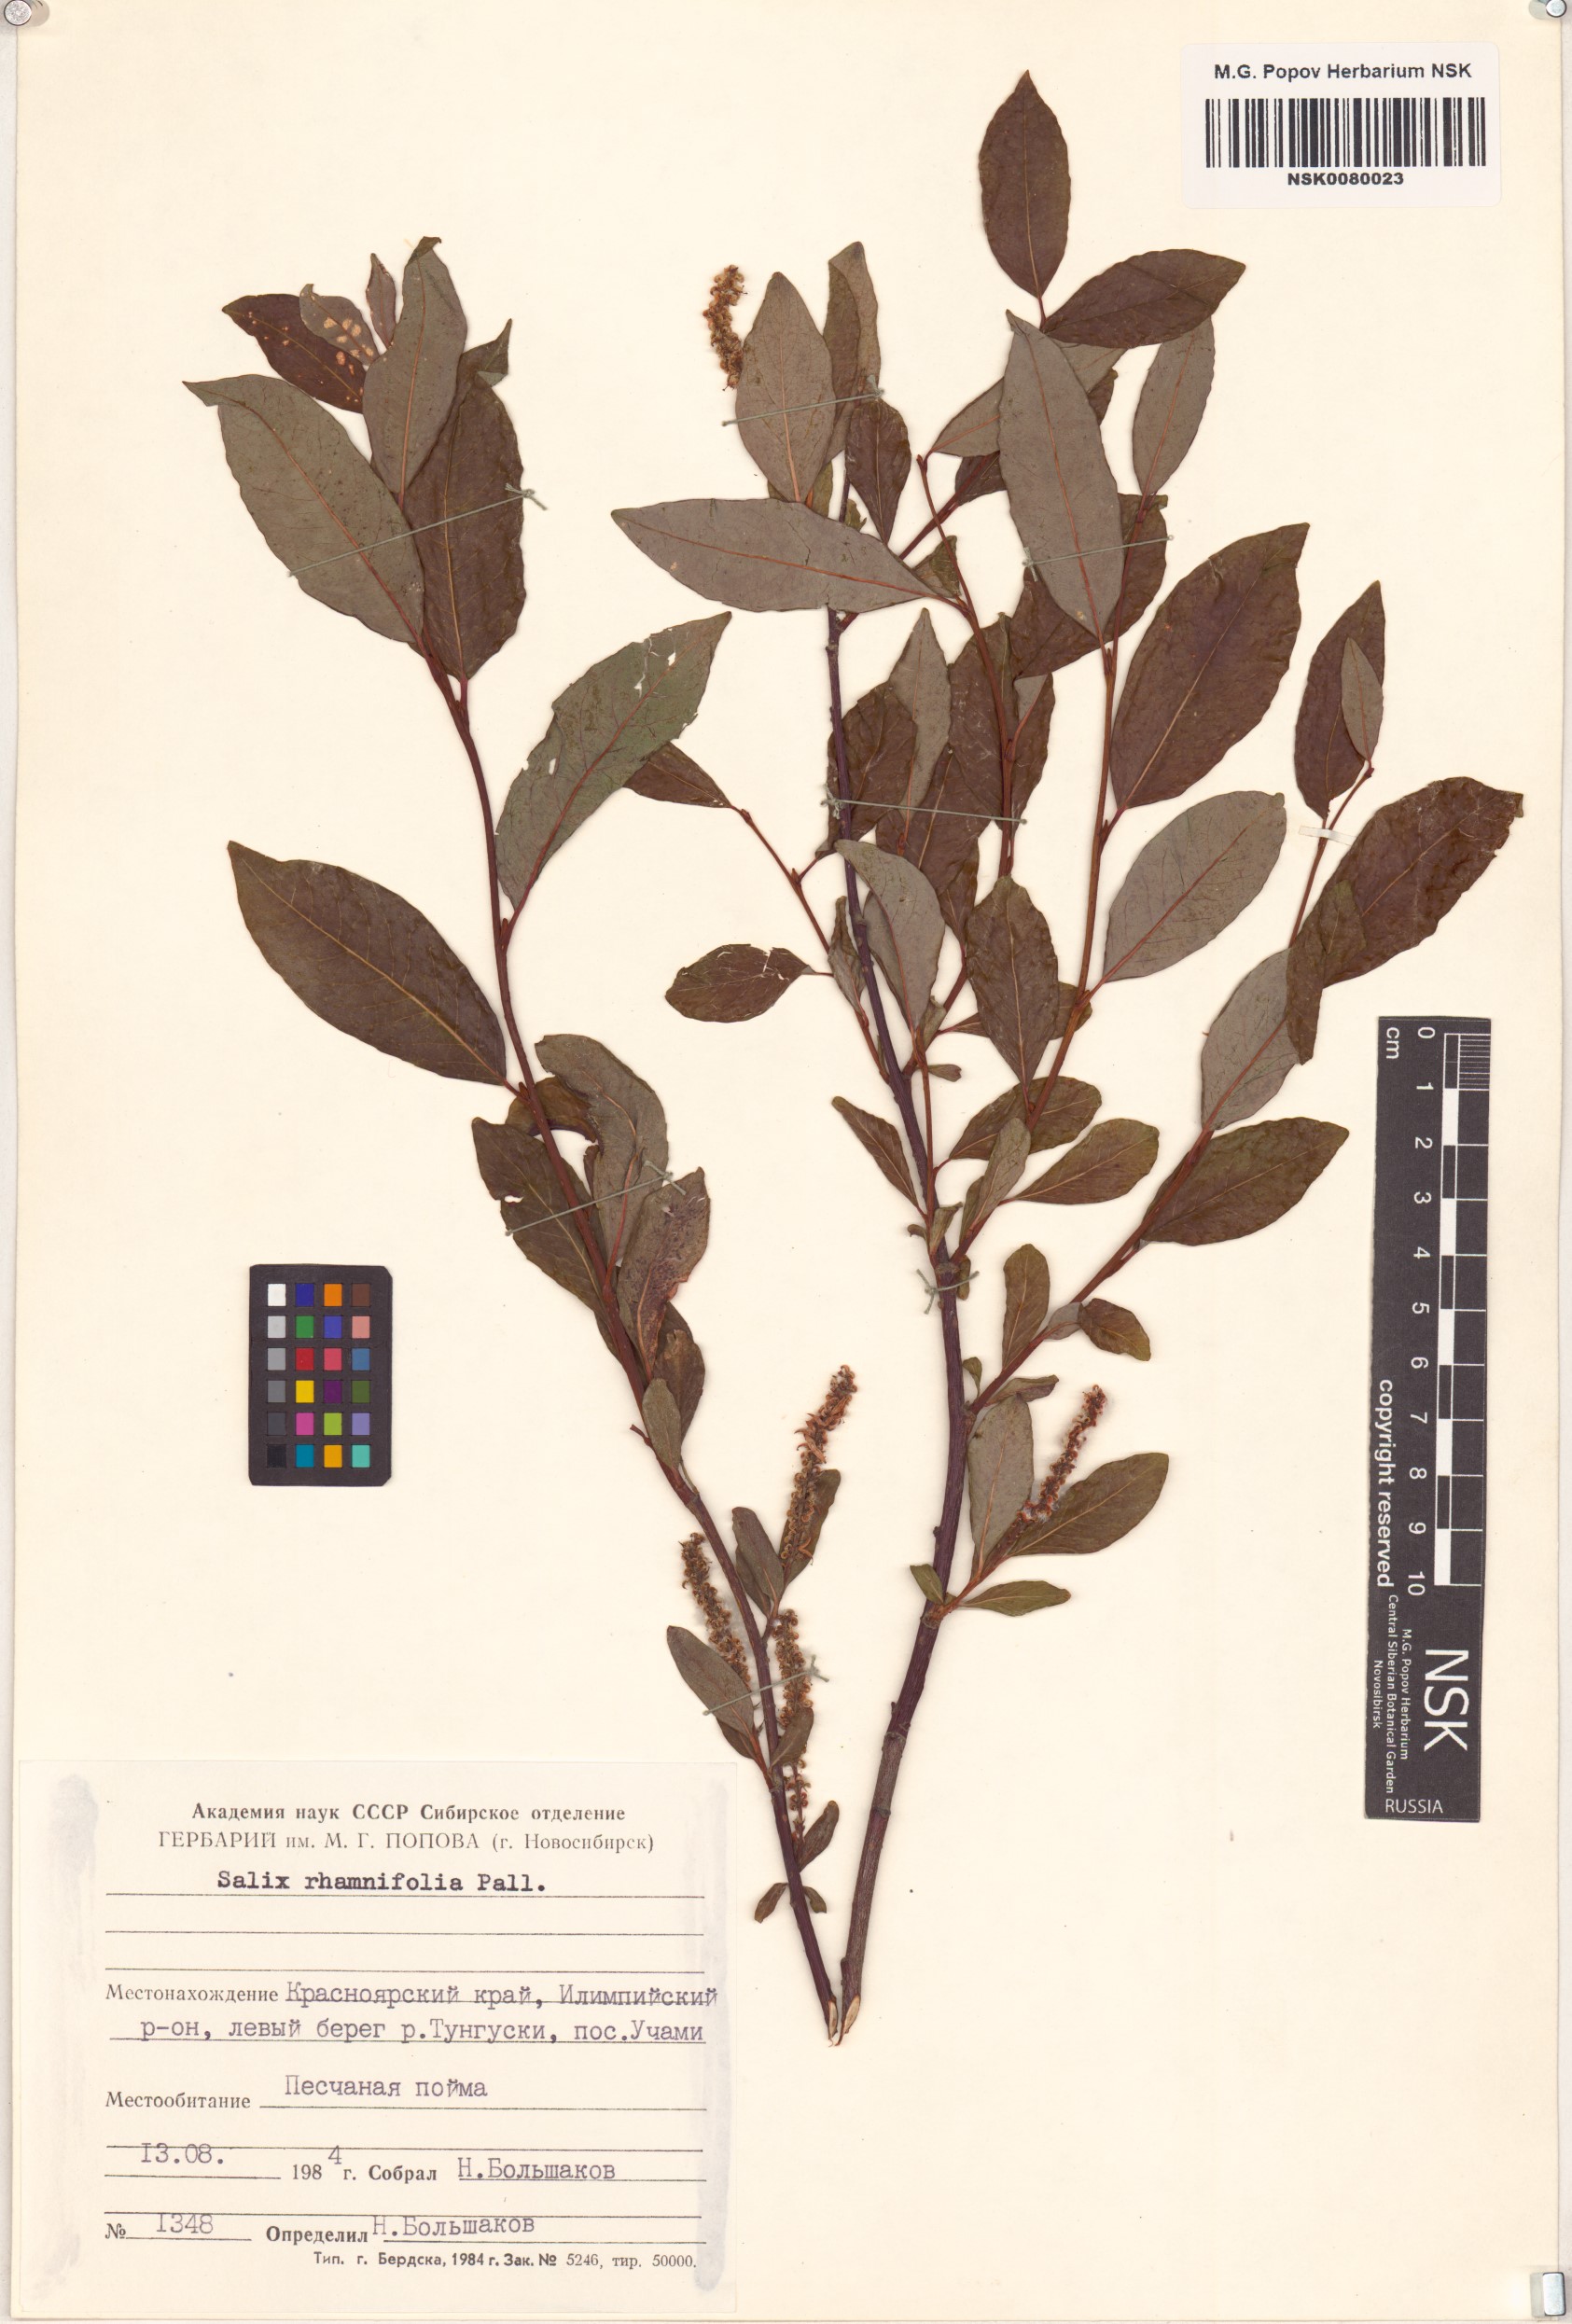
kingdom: Plantae
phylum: Tracheophyta
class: Magnoliopsida
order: Malpighiales
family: Salicaceae
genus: Salix
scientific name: Salix rhamnifolia
